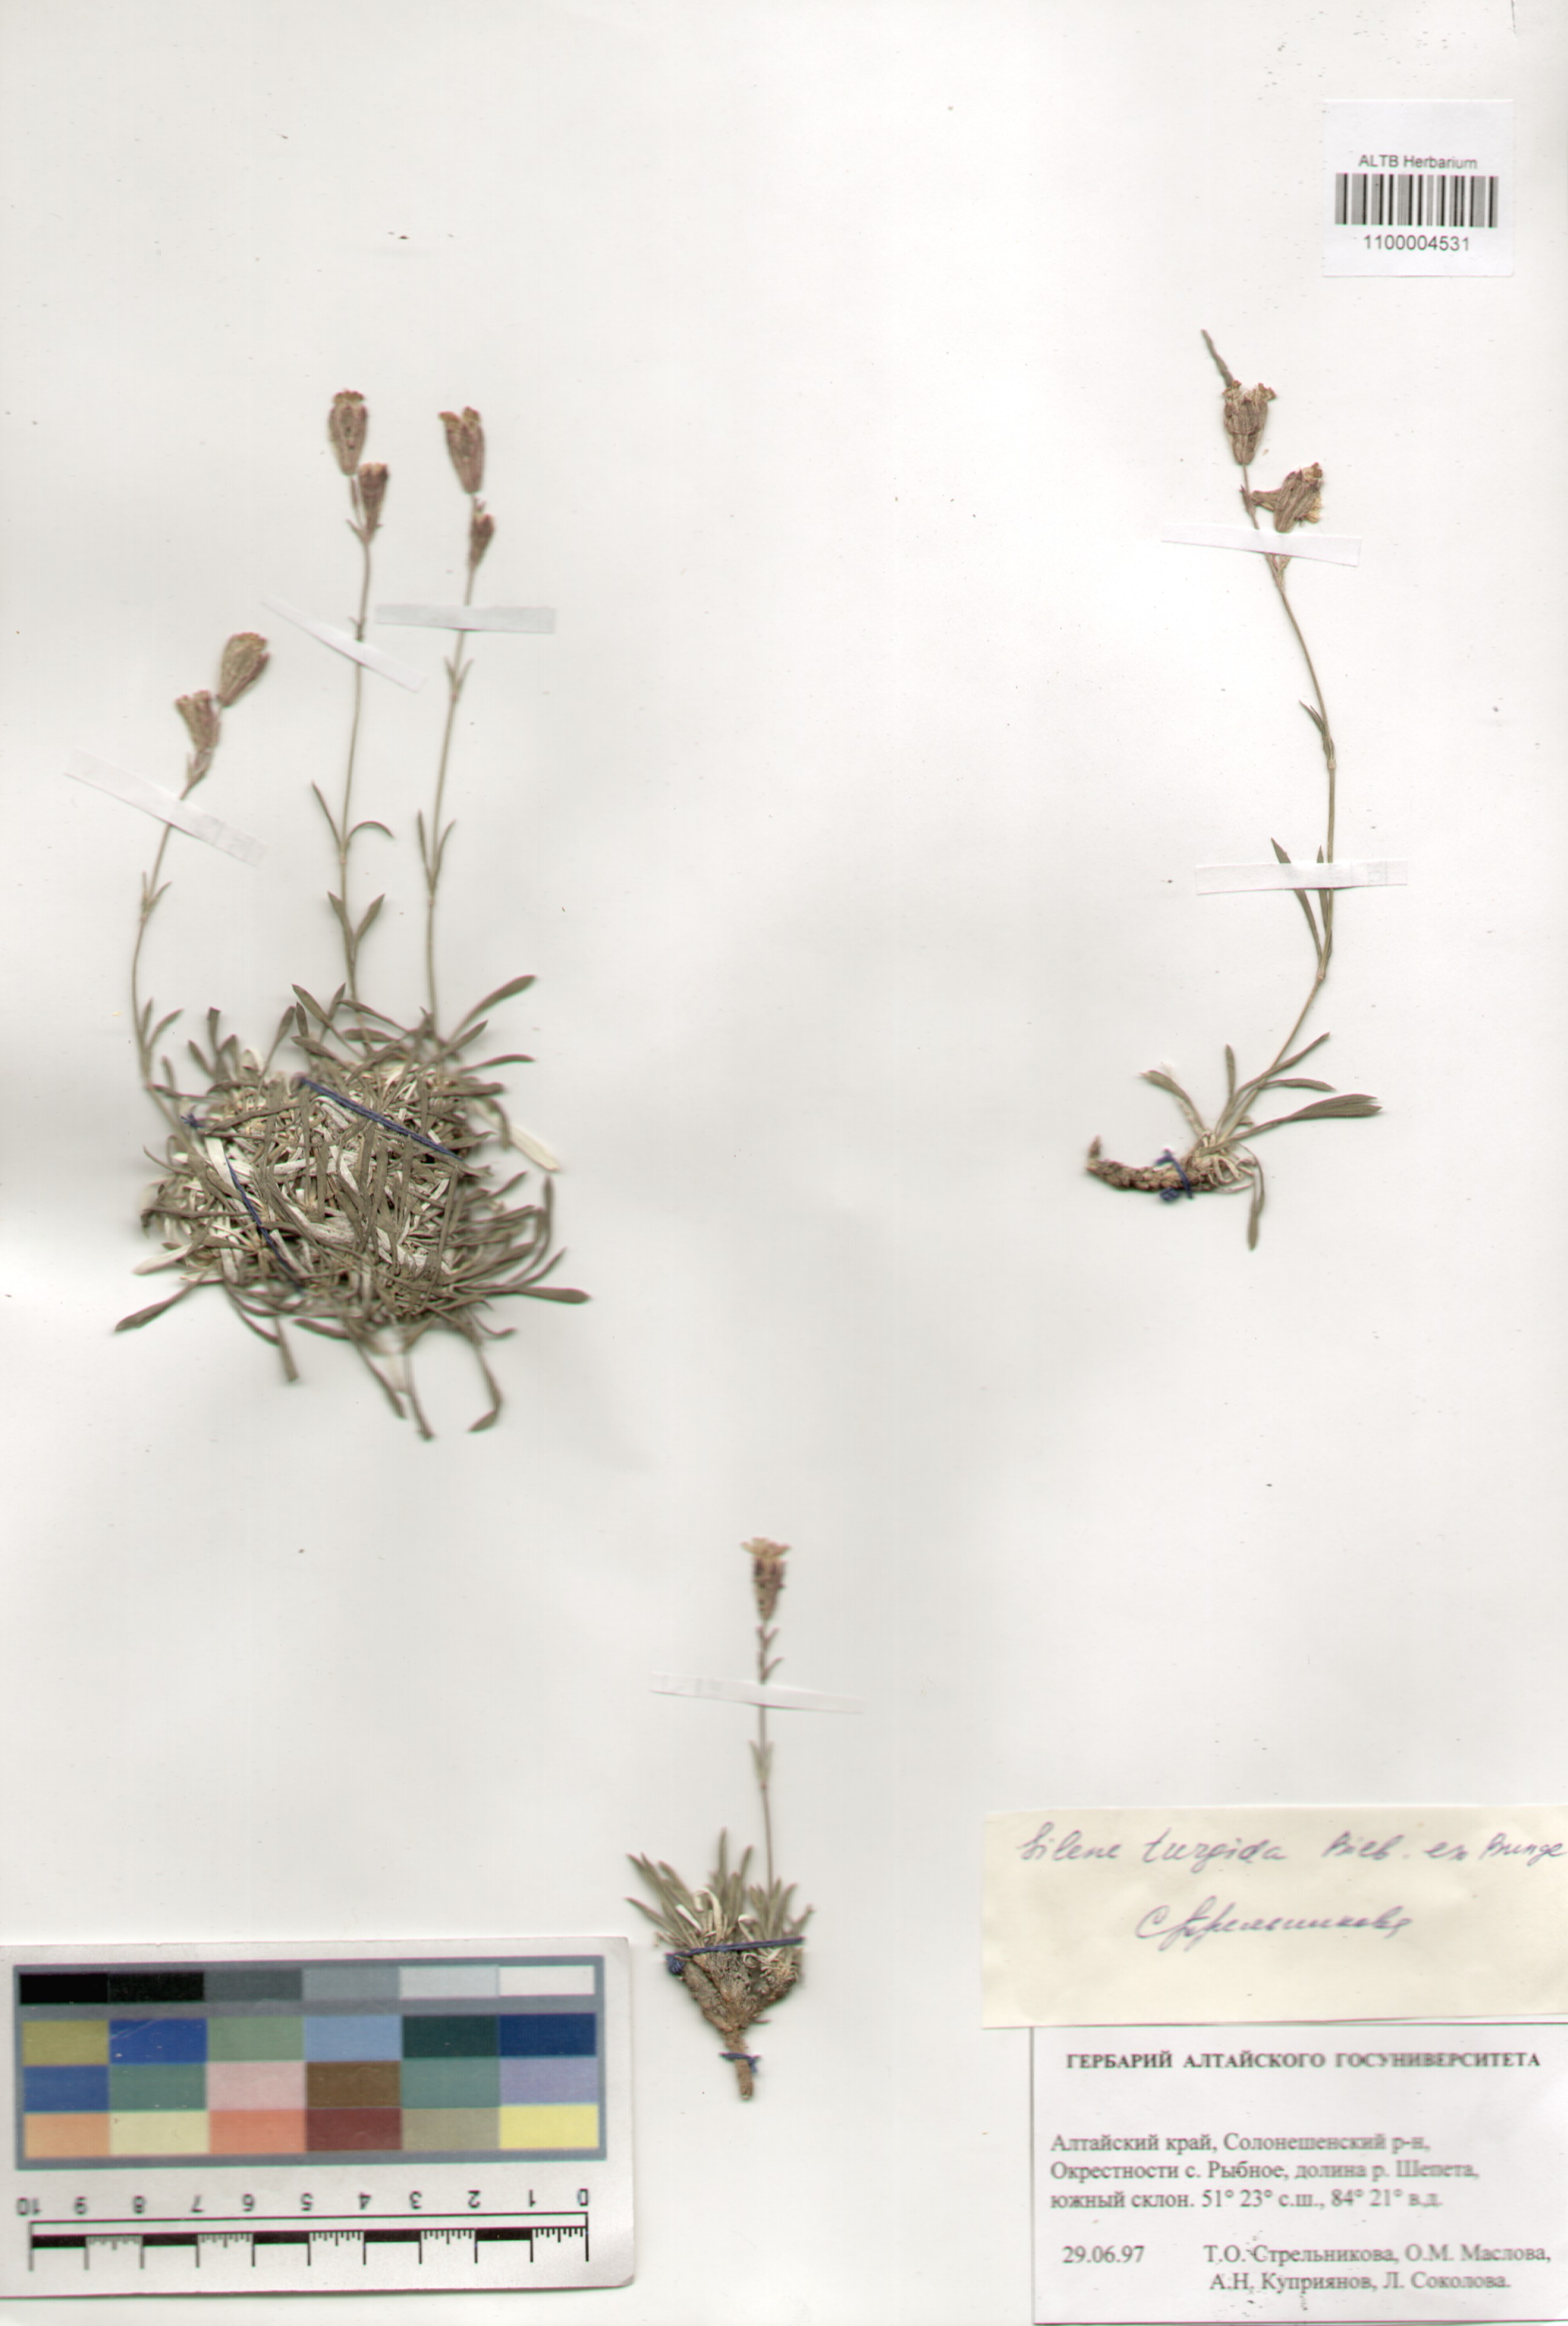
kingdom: Plantae
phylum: Tracheophyta
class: Magnoliopsida
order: Caryophyllales
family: Caryophyllaceae
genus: Silene
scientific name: Silene turgida
